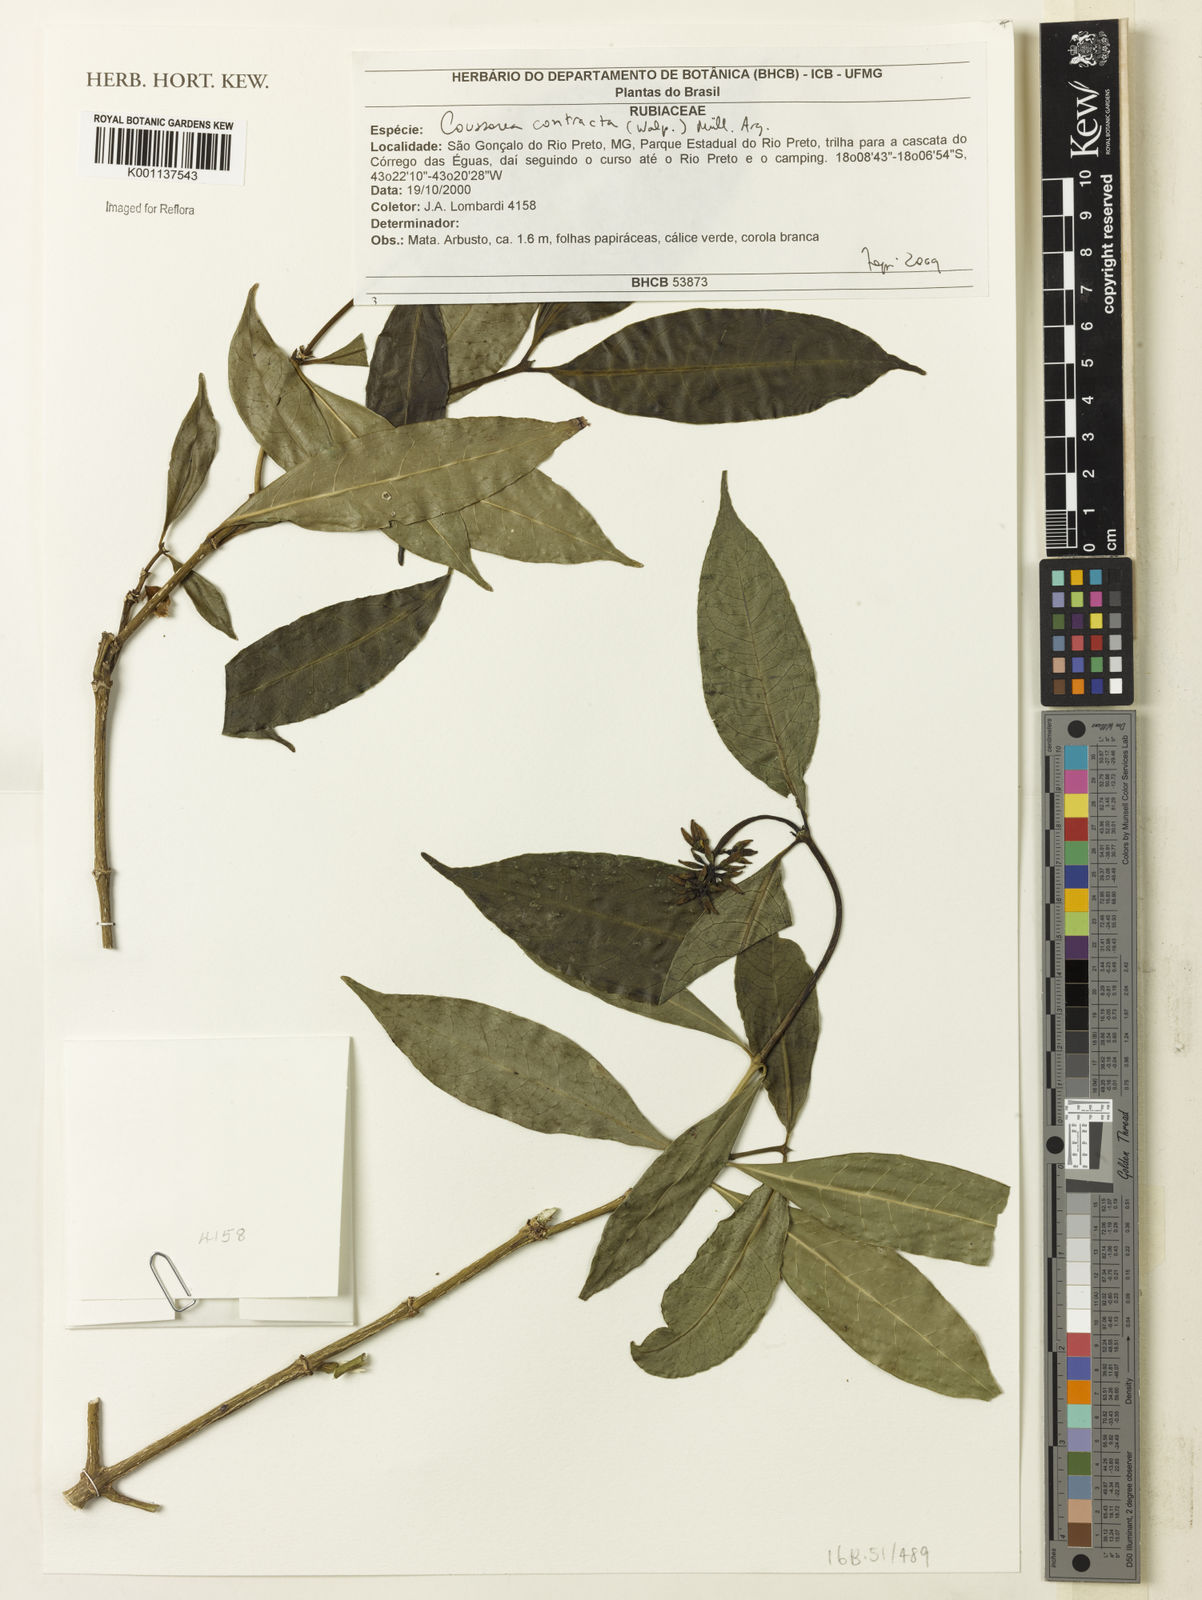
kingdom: Plantae
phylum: Tracheophyta
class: Magnoliopsida
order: Gentianales
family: Rubiaceae
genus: Coussarea
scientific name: Coussarea
